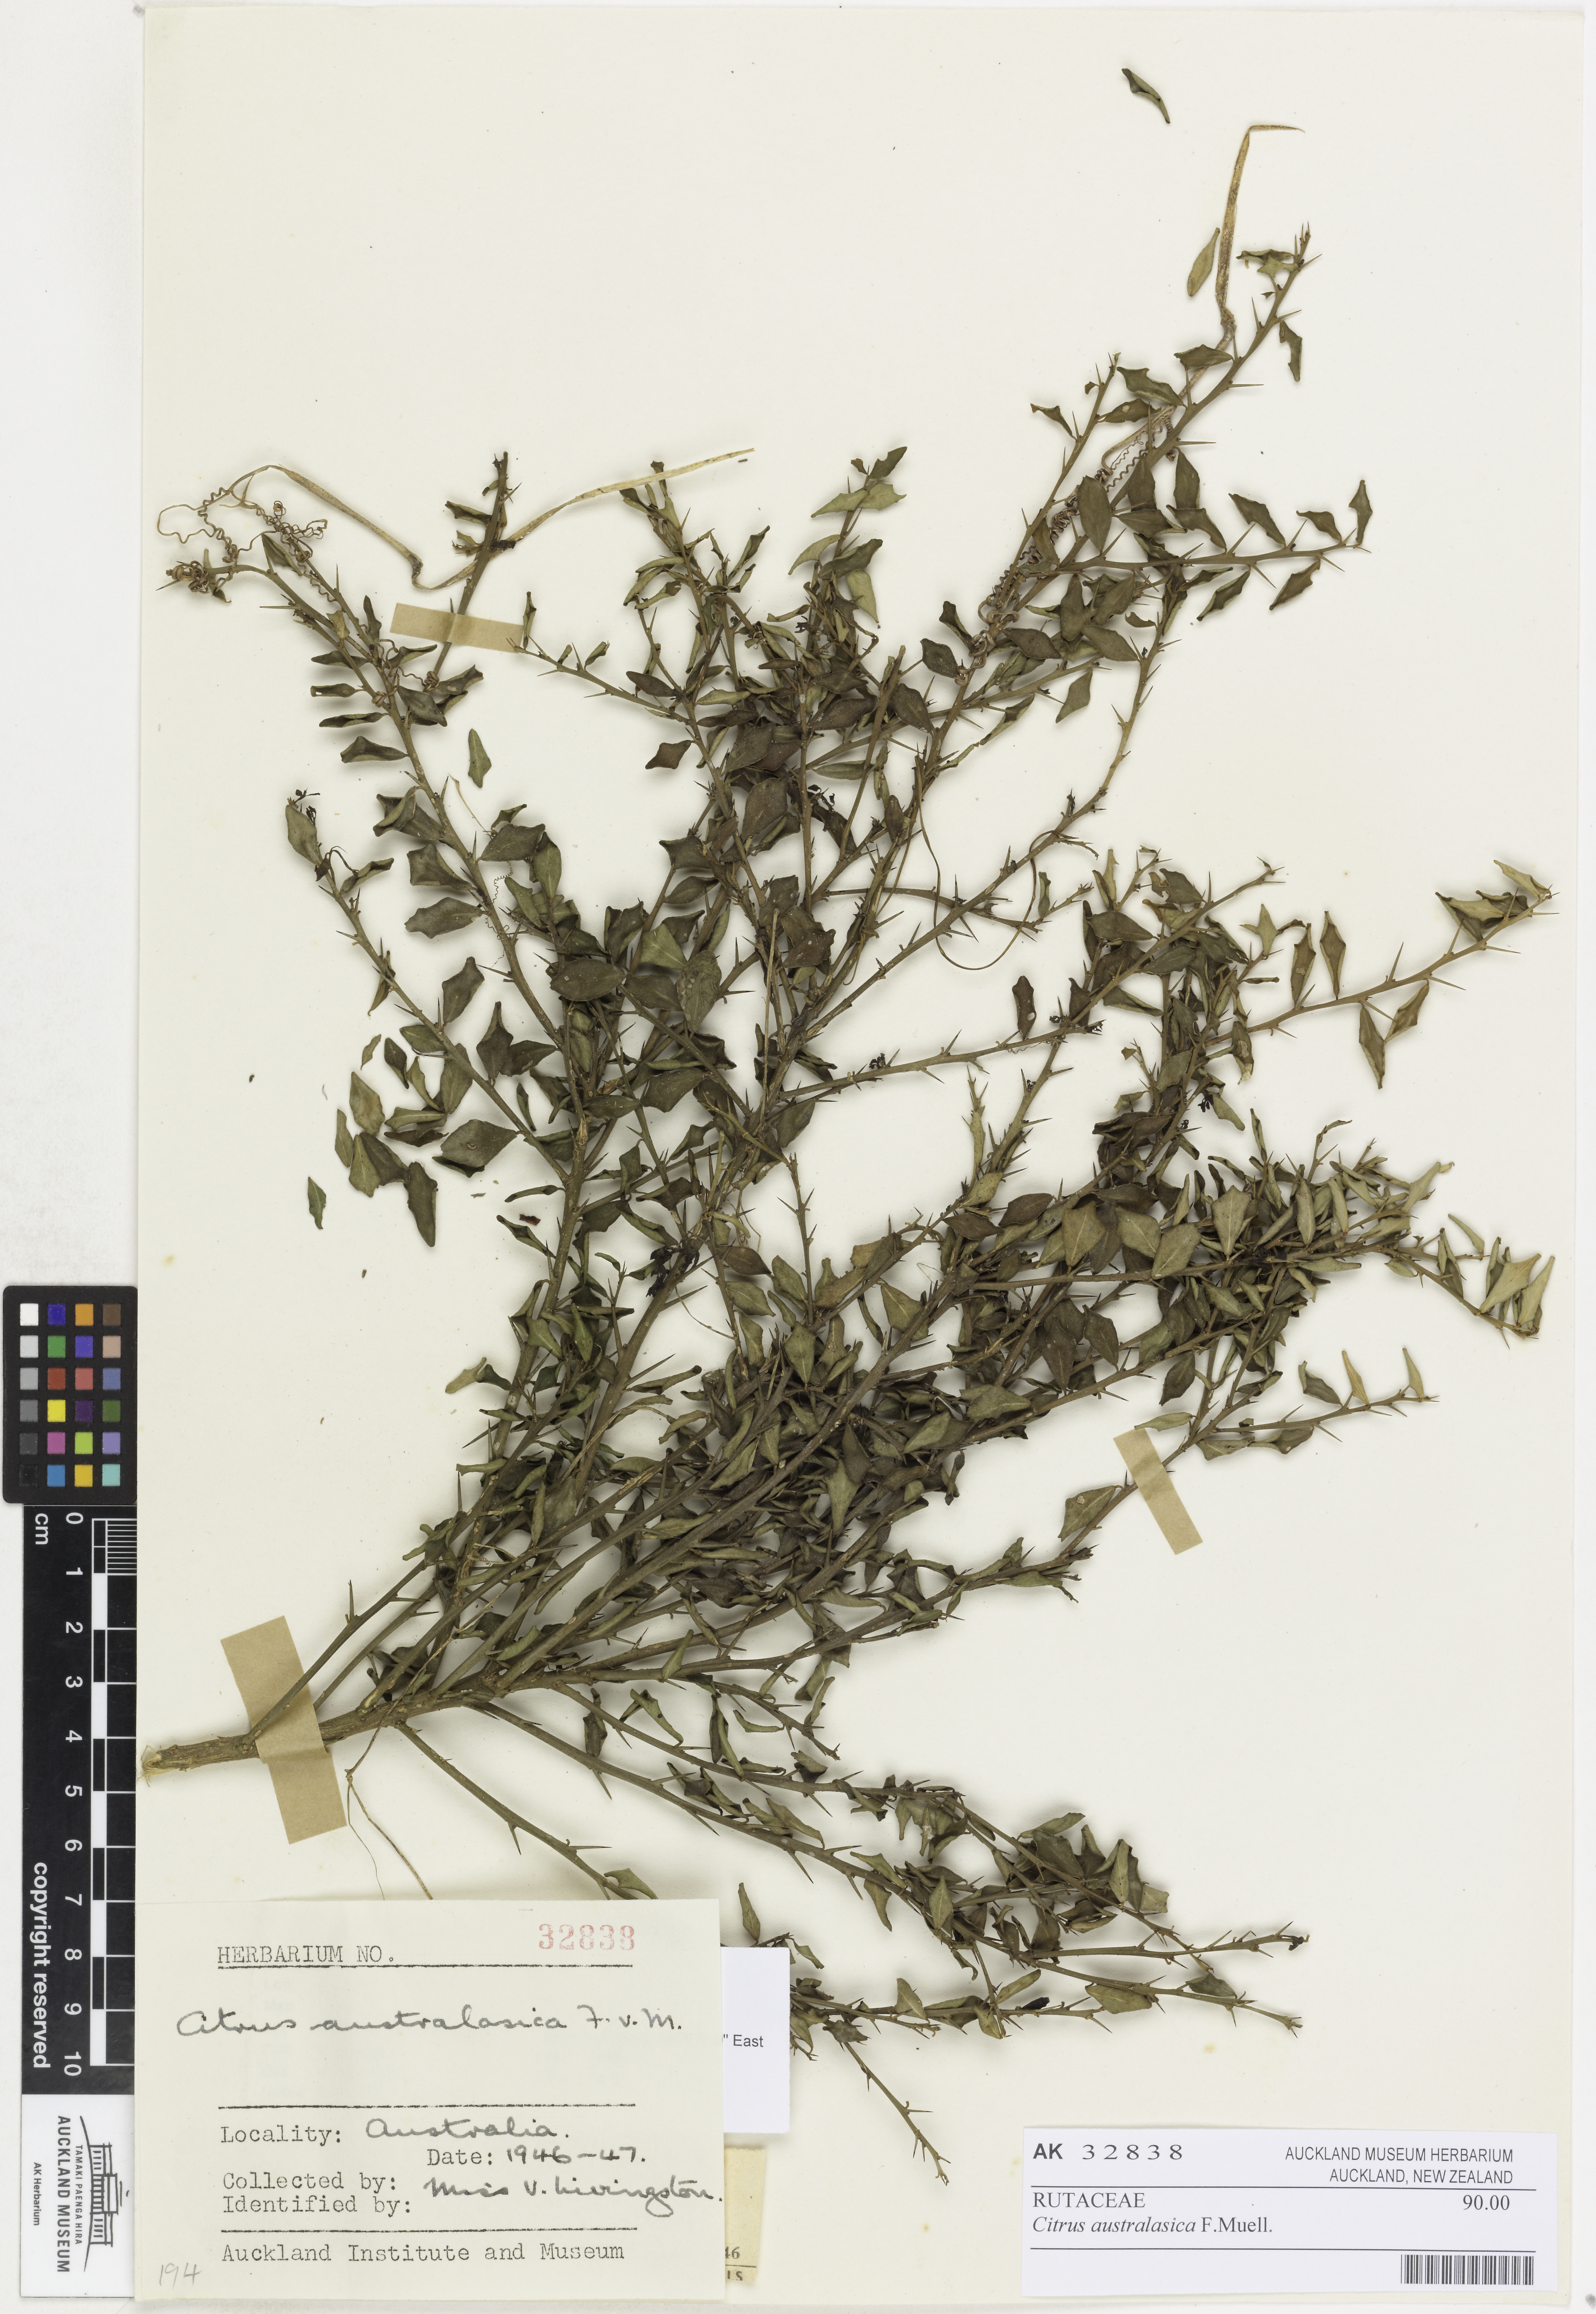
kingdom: Plantae
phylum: Tracheophyta
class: Magnoliopsida
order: Sapindales
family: Rutaceae
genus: Microcitrus
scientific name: Microcitrus australasica
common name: Australian finger-lime
